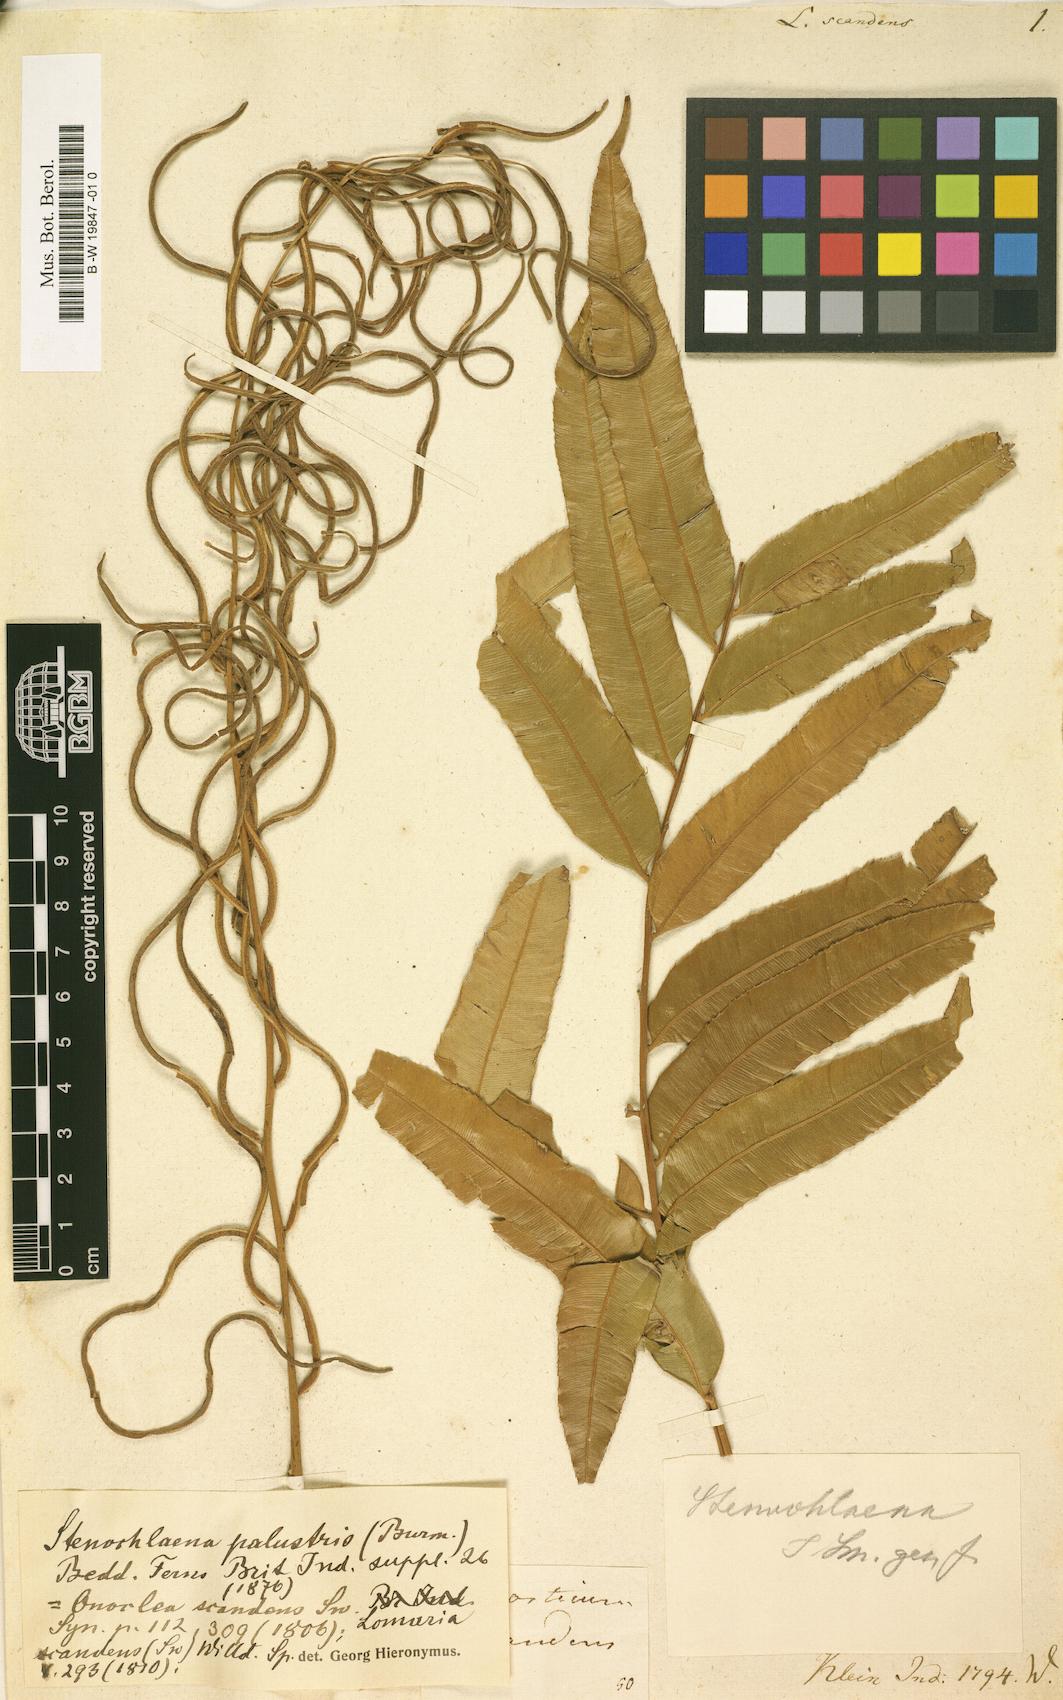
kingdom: Plantae
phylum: Tracheophyta
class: Polypodiopsida
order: Polypodiales
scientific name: Polypodiales
